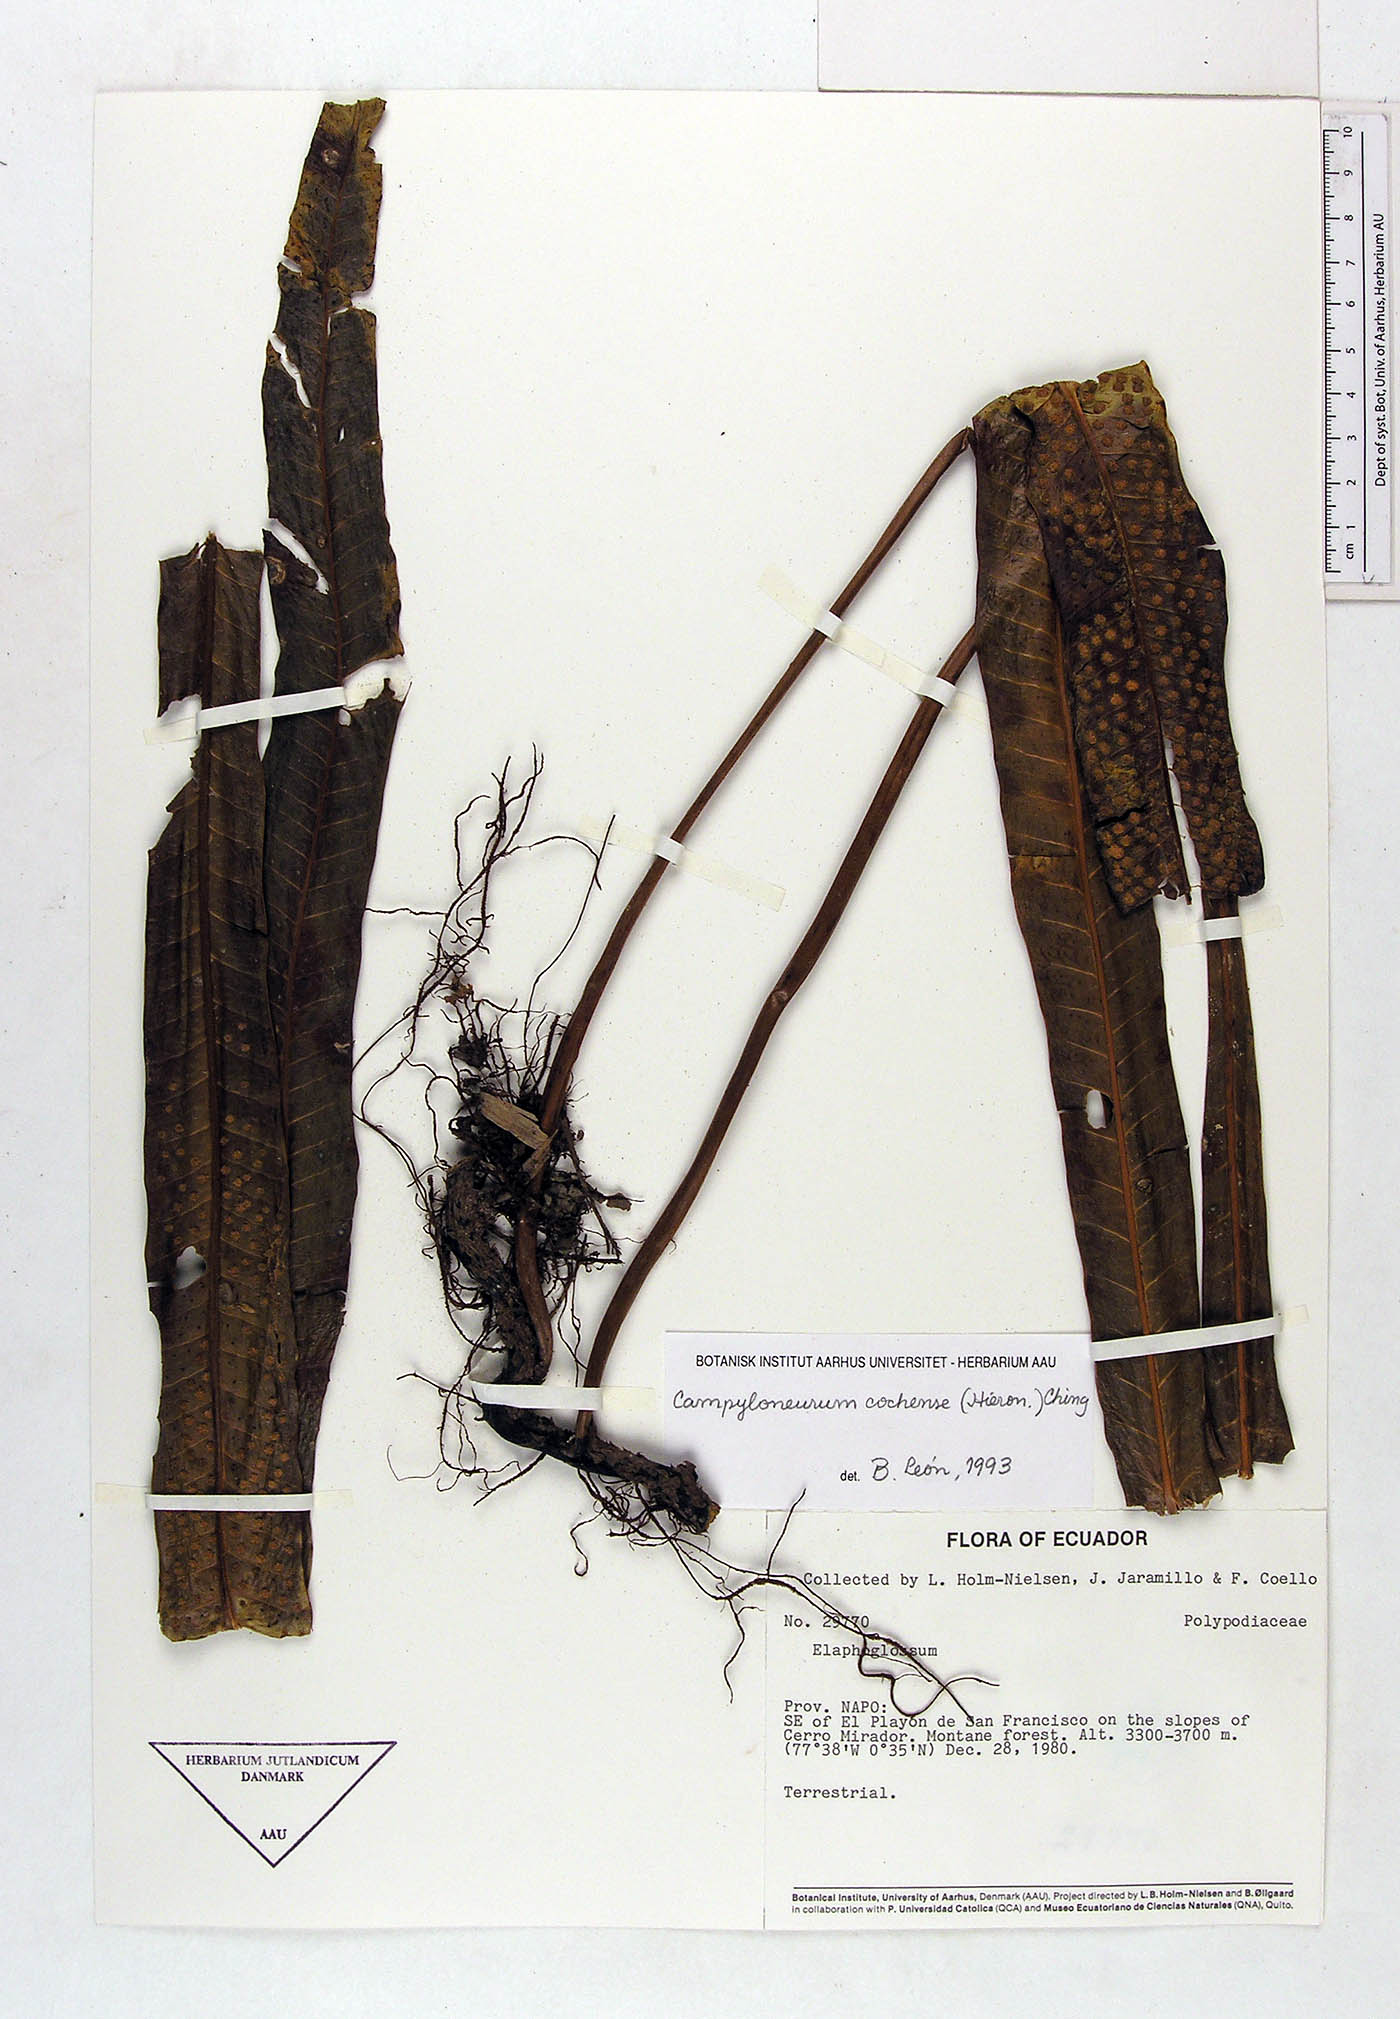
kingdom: Plantae
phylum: Tracheophyta
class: Polypodiopsida
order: Polypodiales
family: Polypodiaceae
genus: Campyloneurum
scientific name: Campyloneurum cochense
